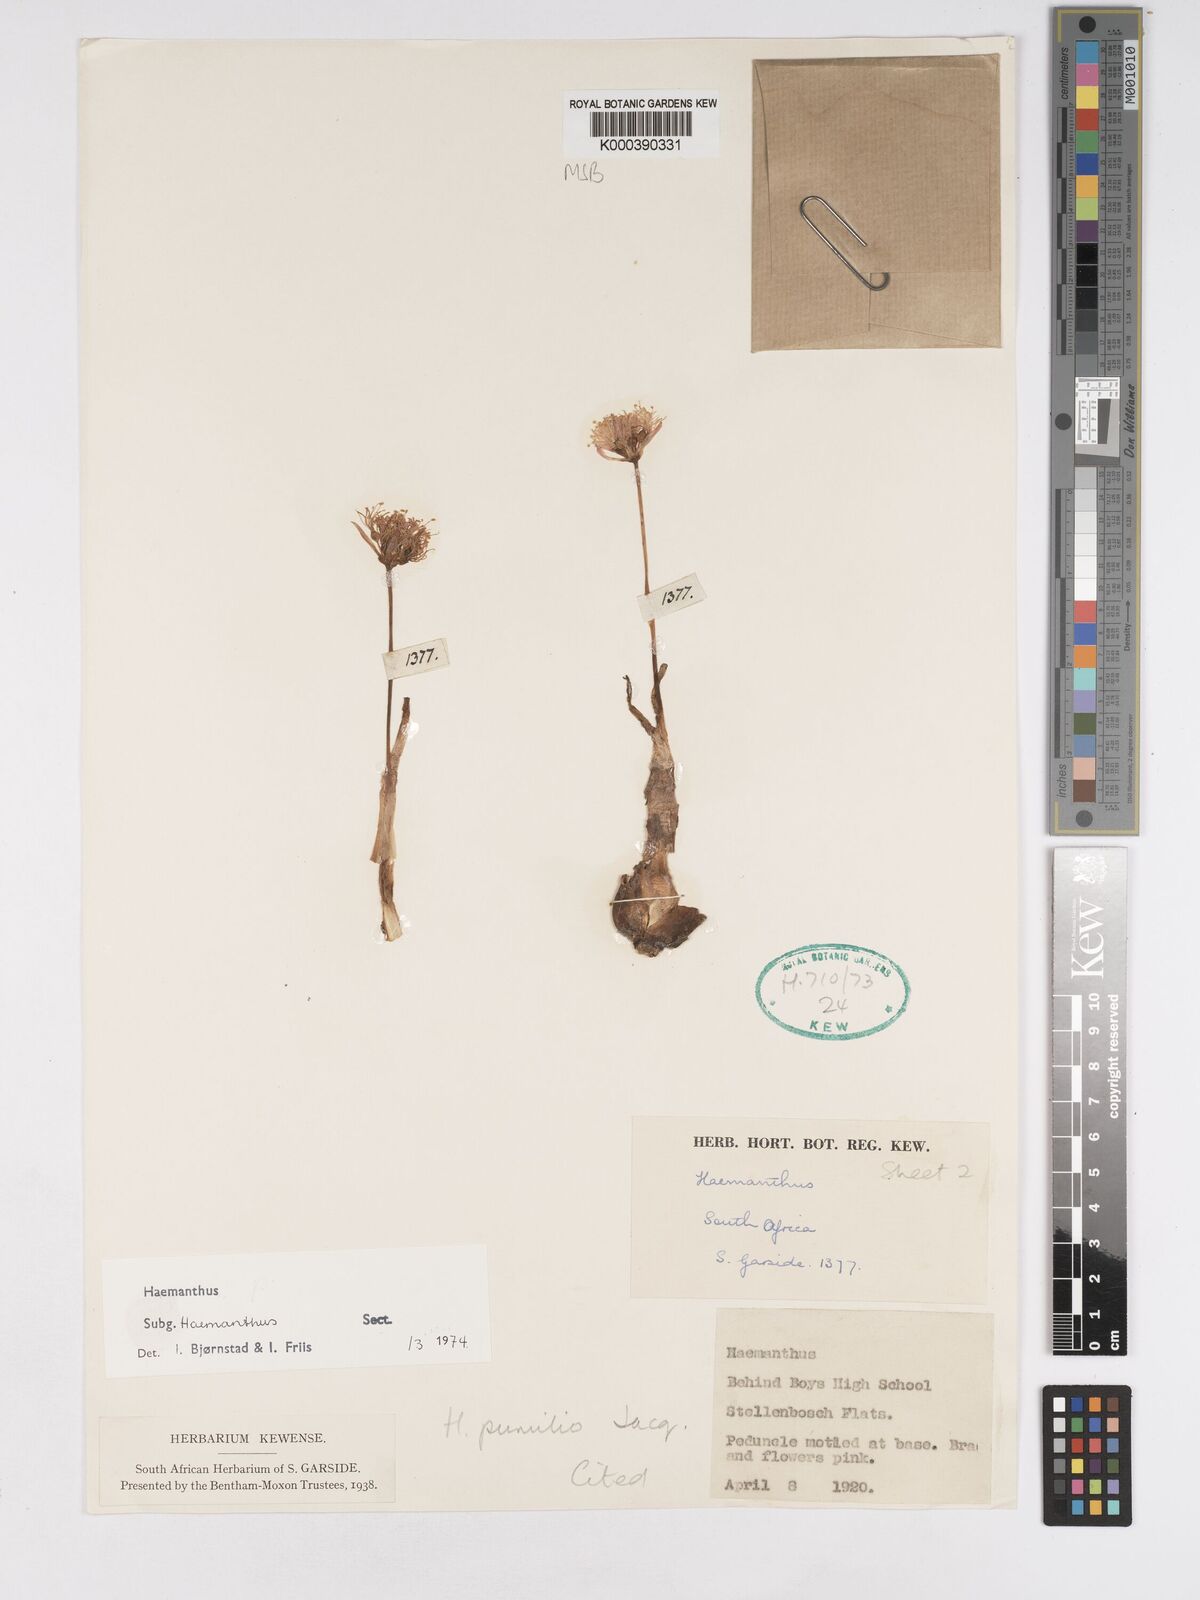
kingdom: Plantae
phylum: Tracheophyta
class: Liliopsida
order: Asparagales
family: Amaryllidaceae
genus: Haemanthus
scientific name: Haemanthus pumilio
